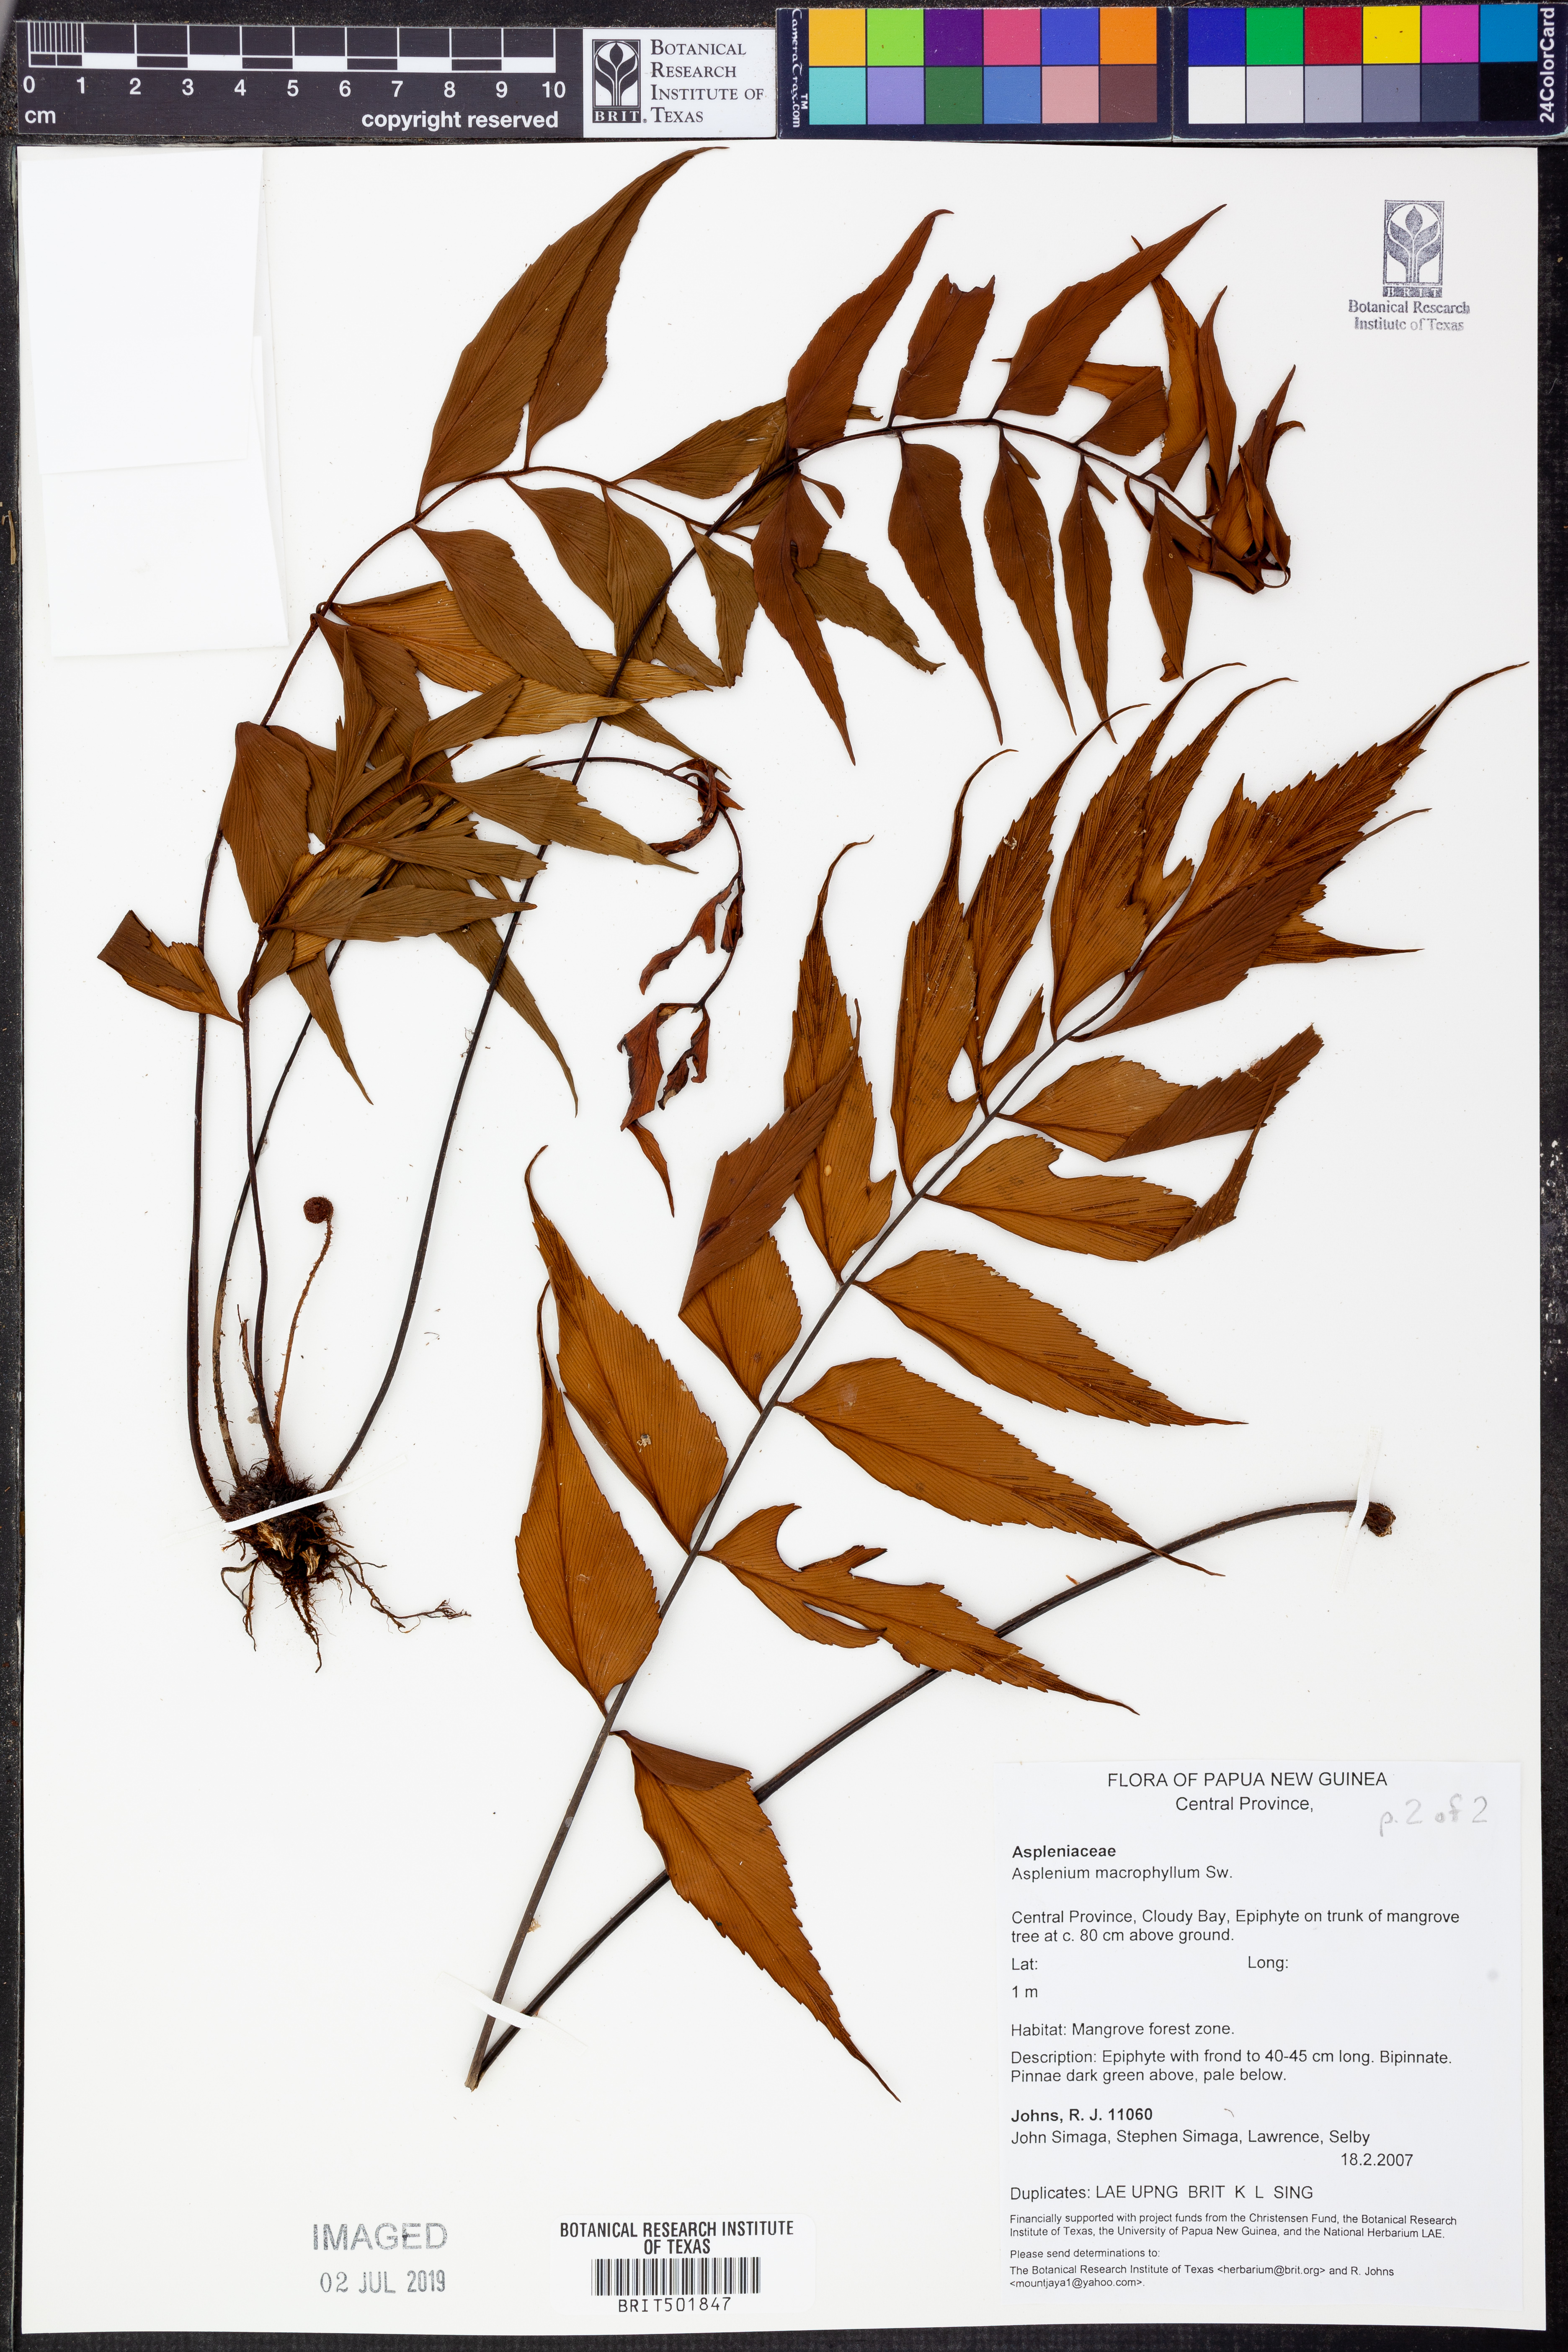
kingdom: Plantae
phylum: Tracheophyta
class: Polypodiopsida
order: Polypodiales
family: Aspleniaceae
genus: Asplenium
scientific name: Asplenium macrophyllum
